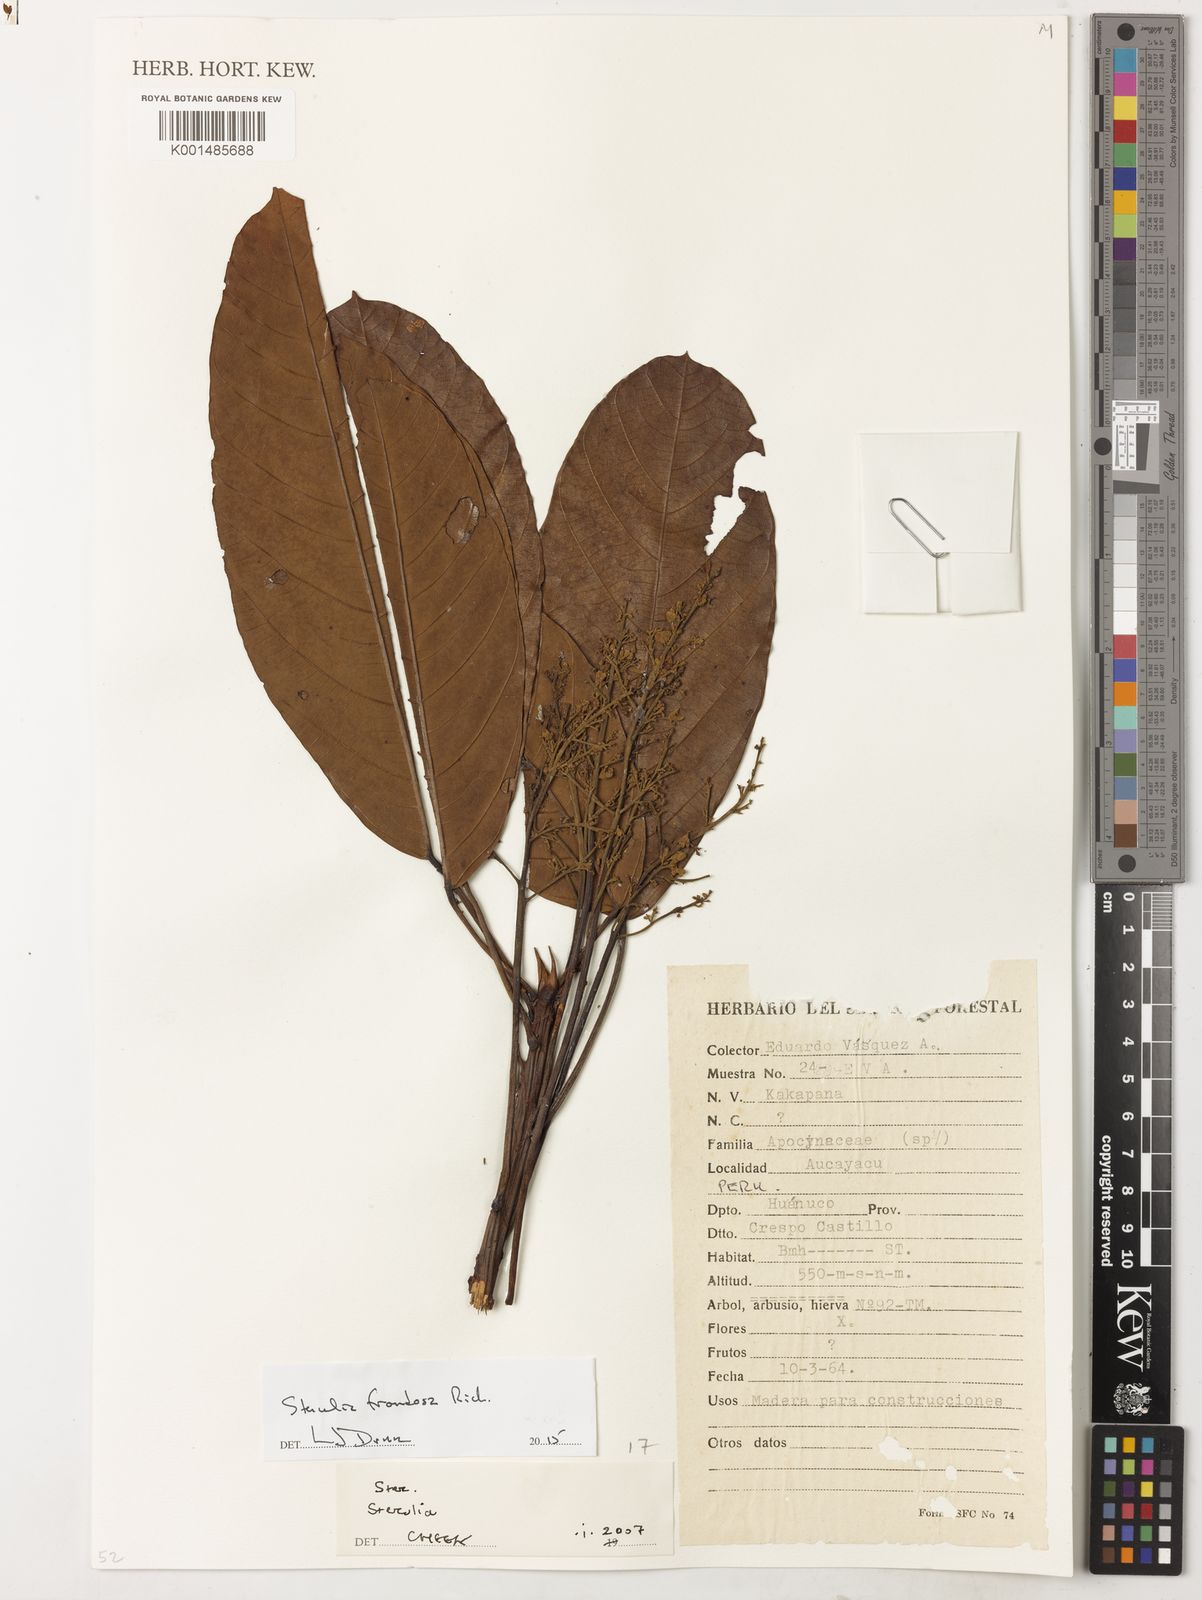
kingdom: Plantae
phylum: Tracheophyta
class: Magnoliopsida
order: Malvales
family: Malvaceae
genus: Sterculia
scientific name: Sterculia frondosa
